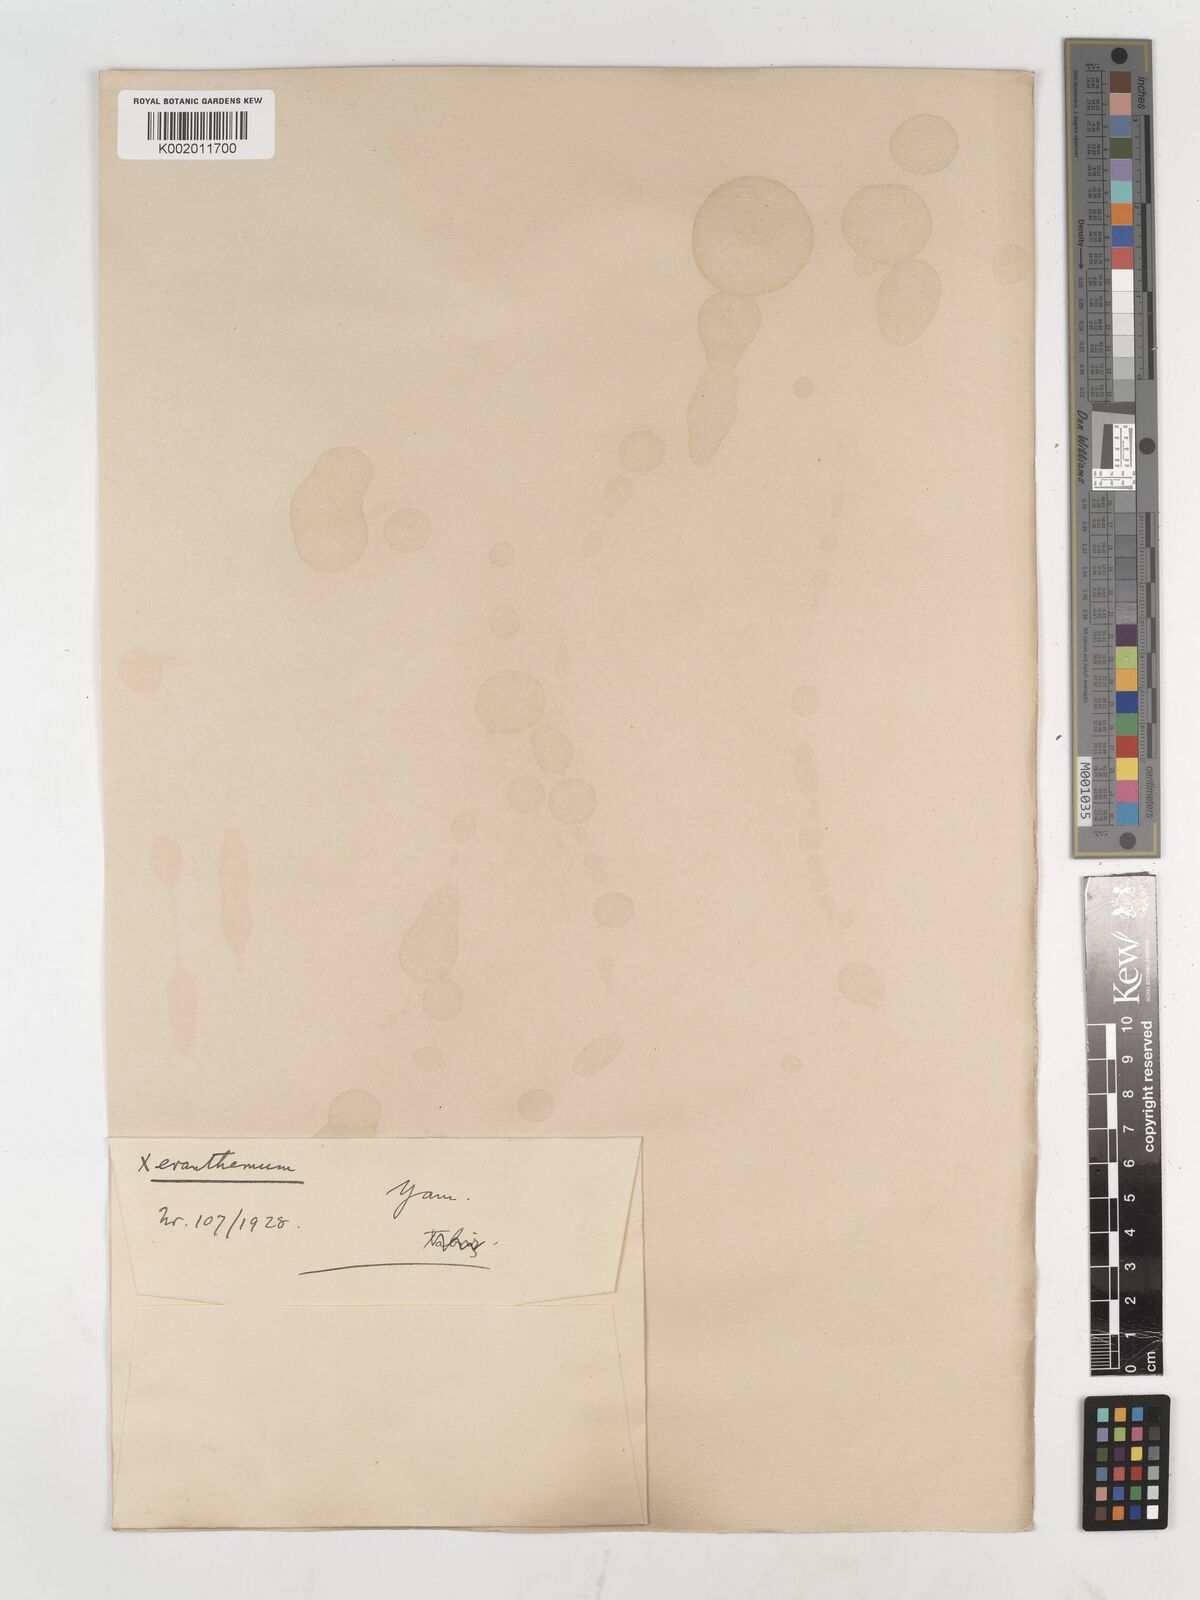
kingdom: Plantae
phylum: Tracheophyta
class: Magnoliopsida
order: Asterales
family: Asteraceae
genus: Xeranthemum
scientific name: Xeranthemum squarrosum
